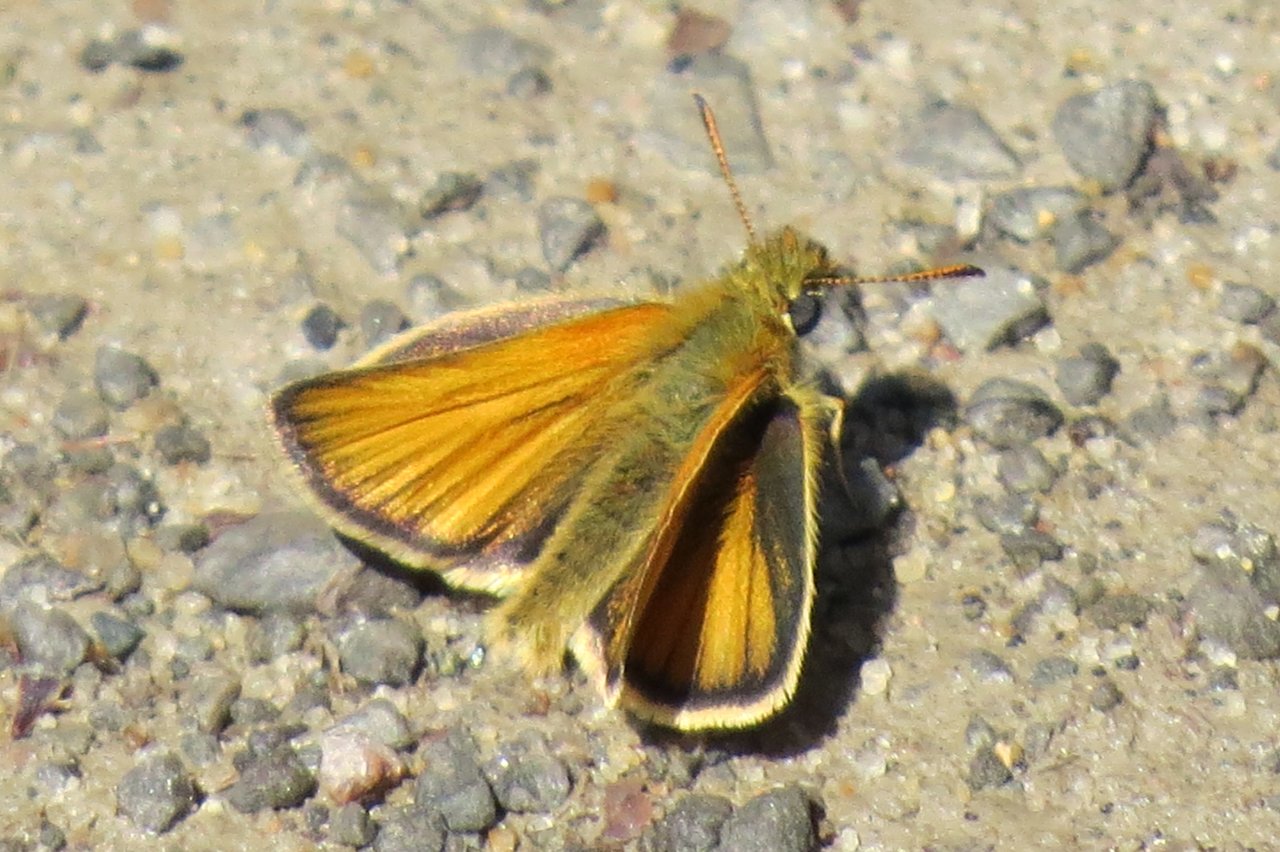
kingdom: Animalia
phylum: Arthropoda
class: Insecta
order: Lepidoptera
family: Hesperiidae
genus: Thymelicus
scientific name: Thymelicus lineola
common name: European Skipper
